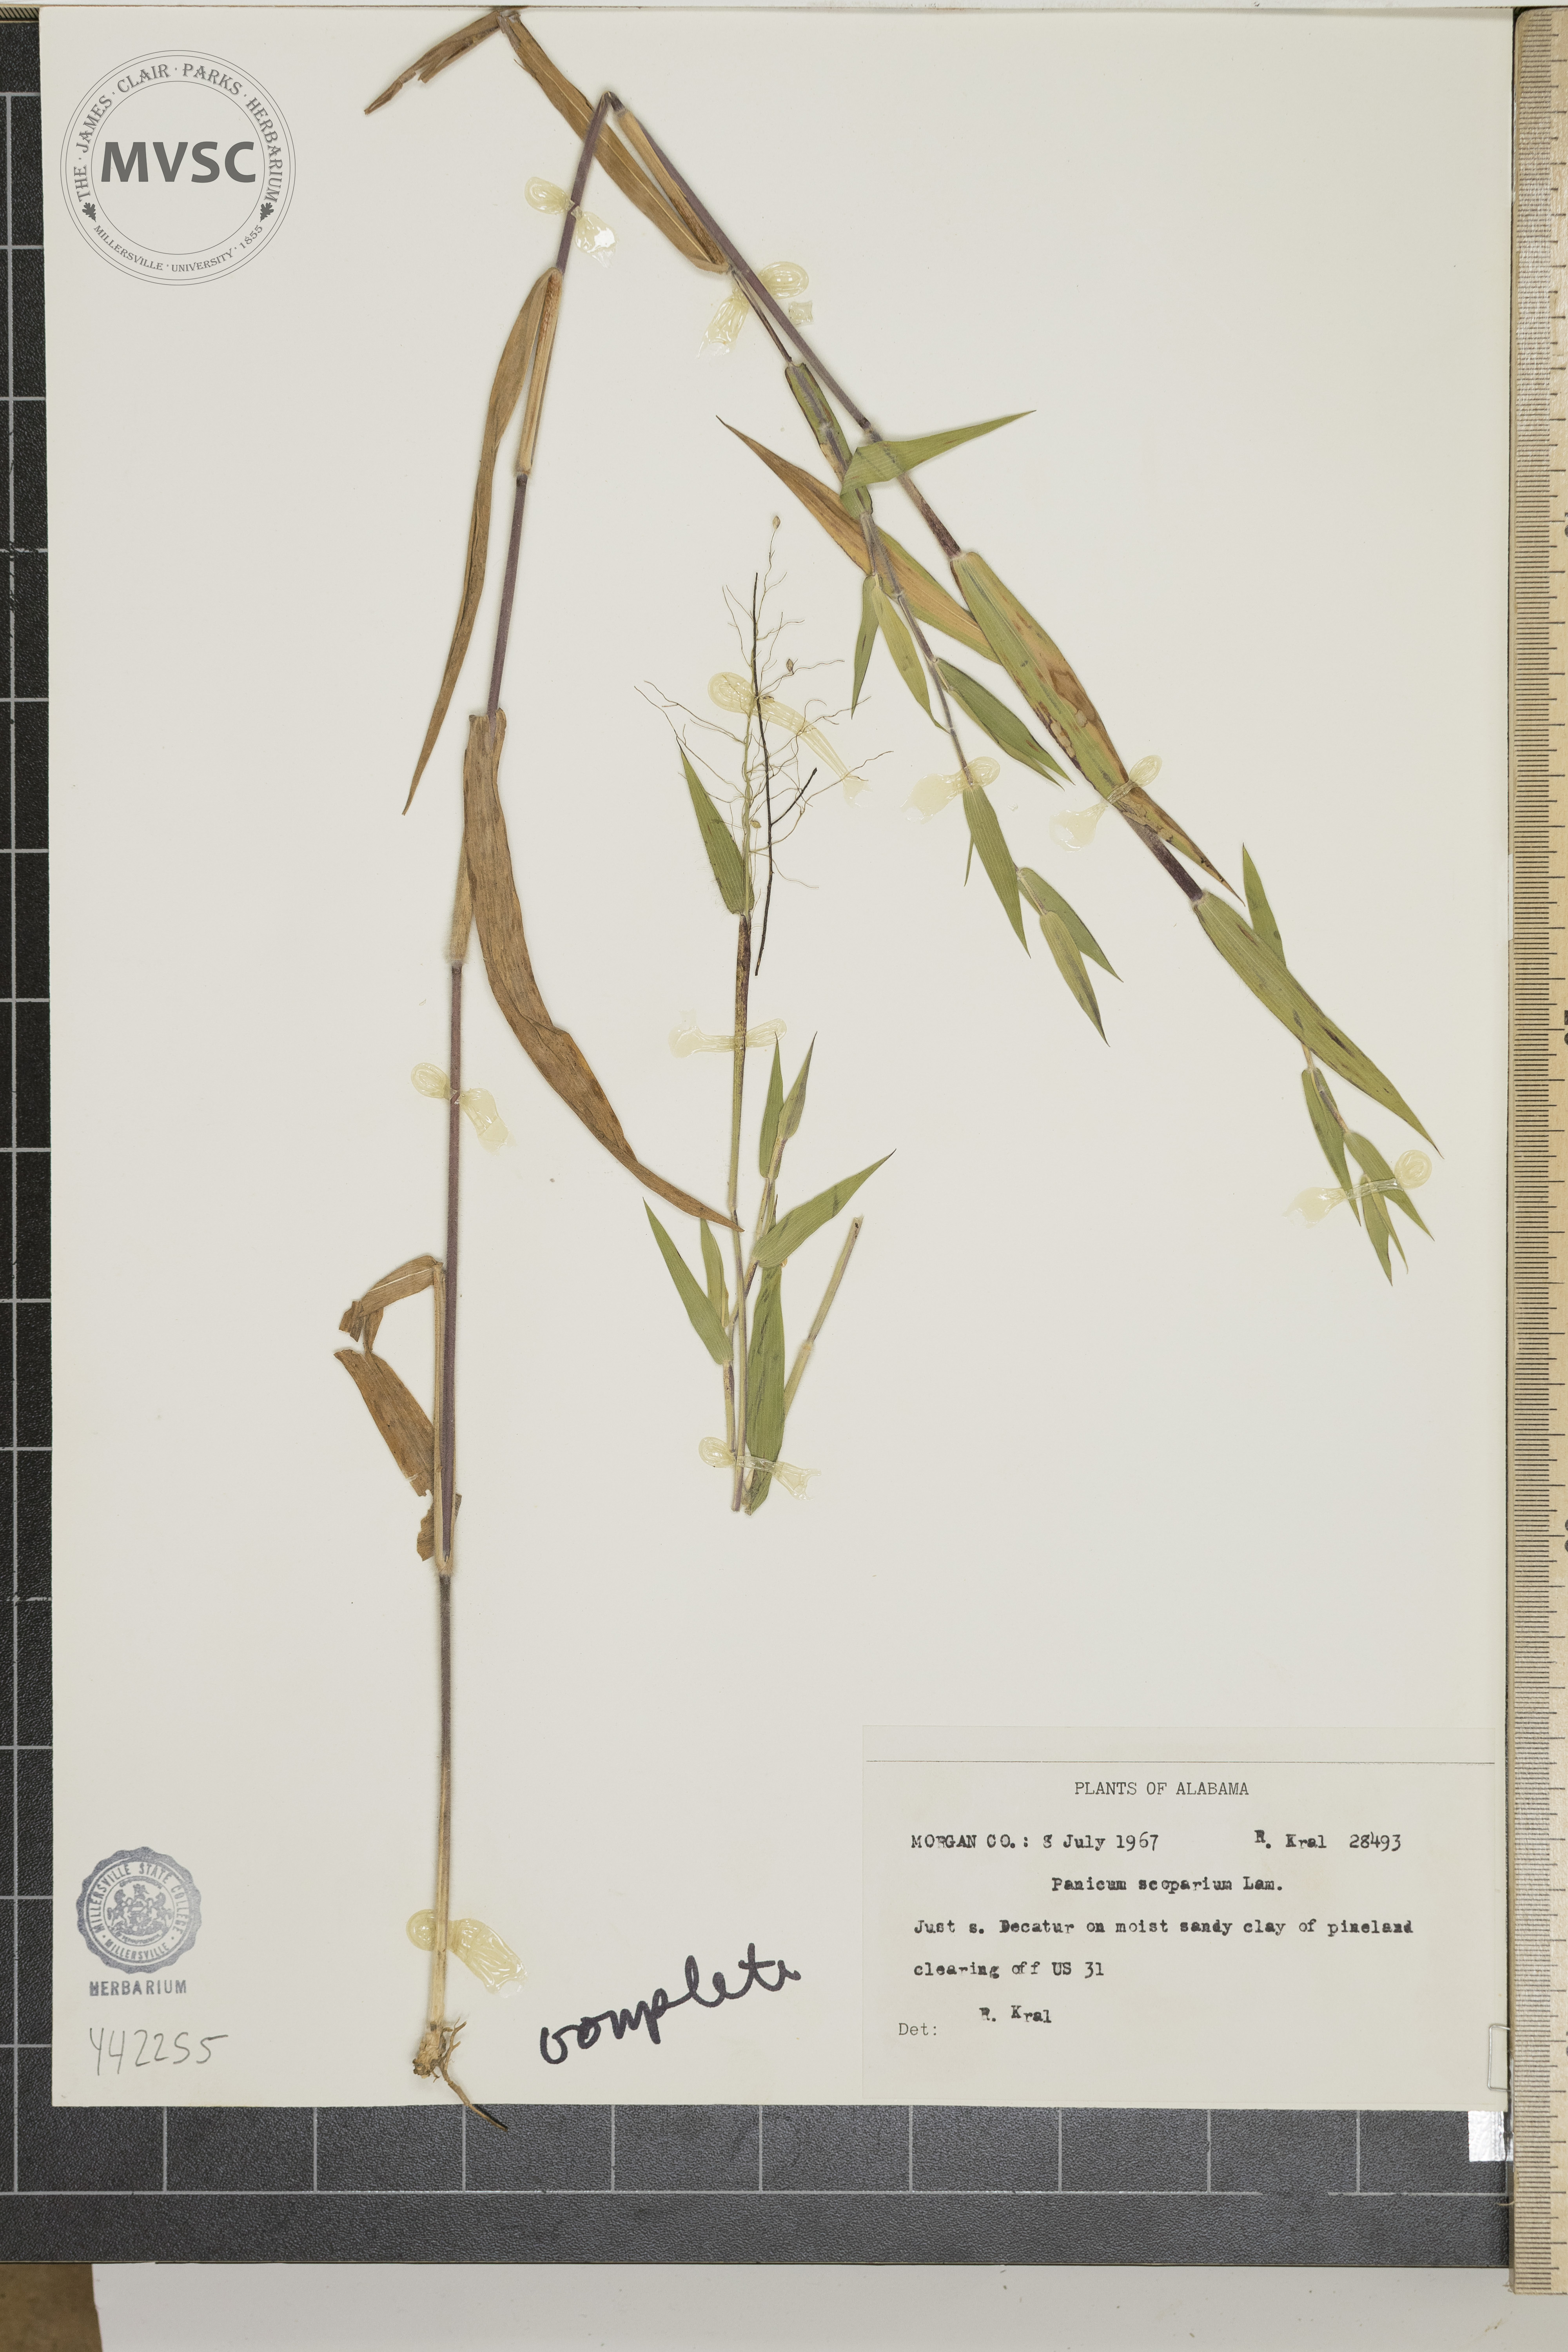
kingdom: Plantae
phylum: Tracheophyta
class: Liliopsida
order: Poales
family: Poaceae
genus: Dichanthelium
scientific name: Dichanthelium scoparium
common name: Velvety panic grass
